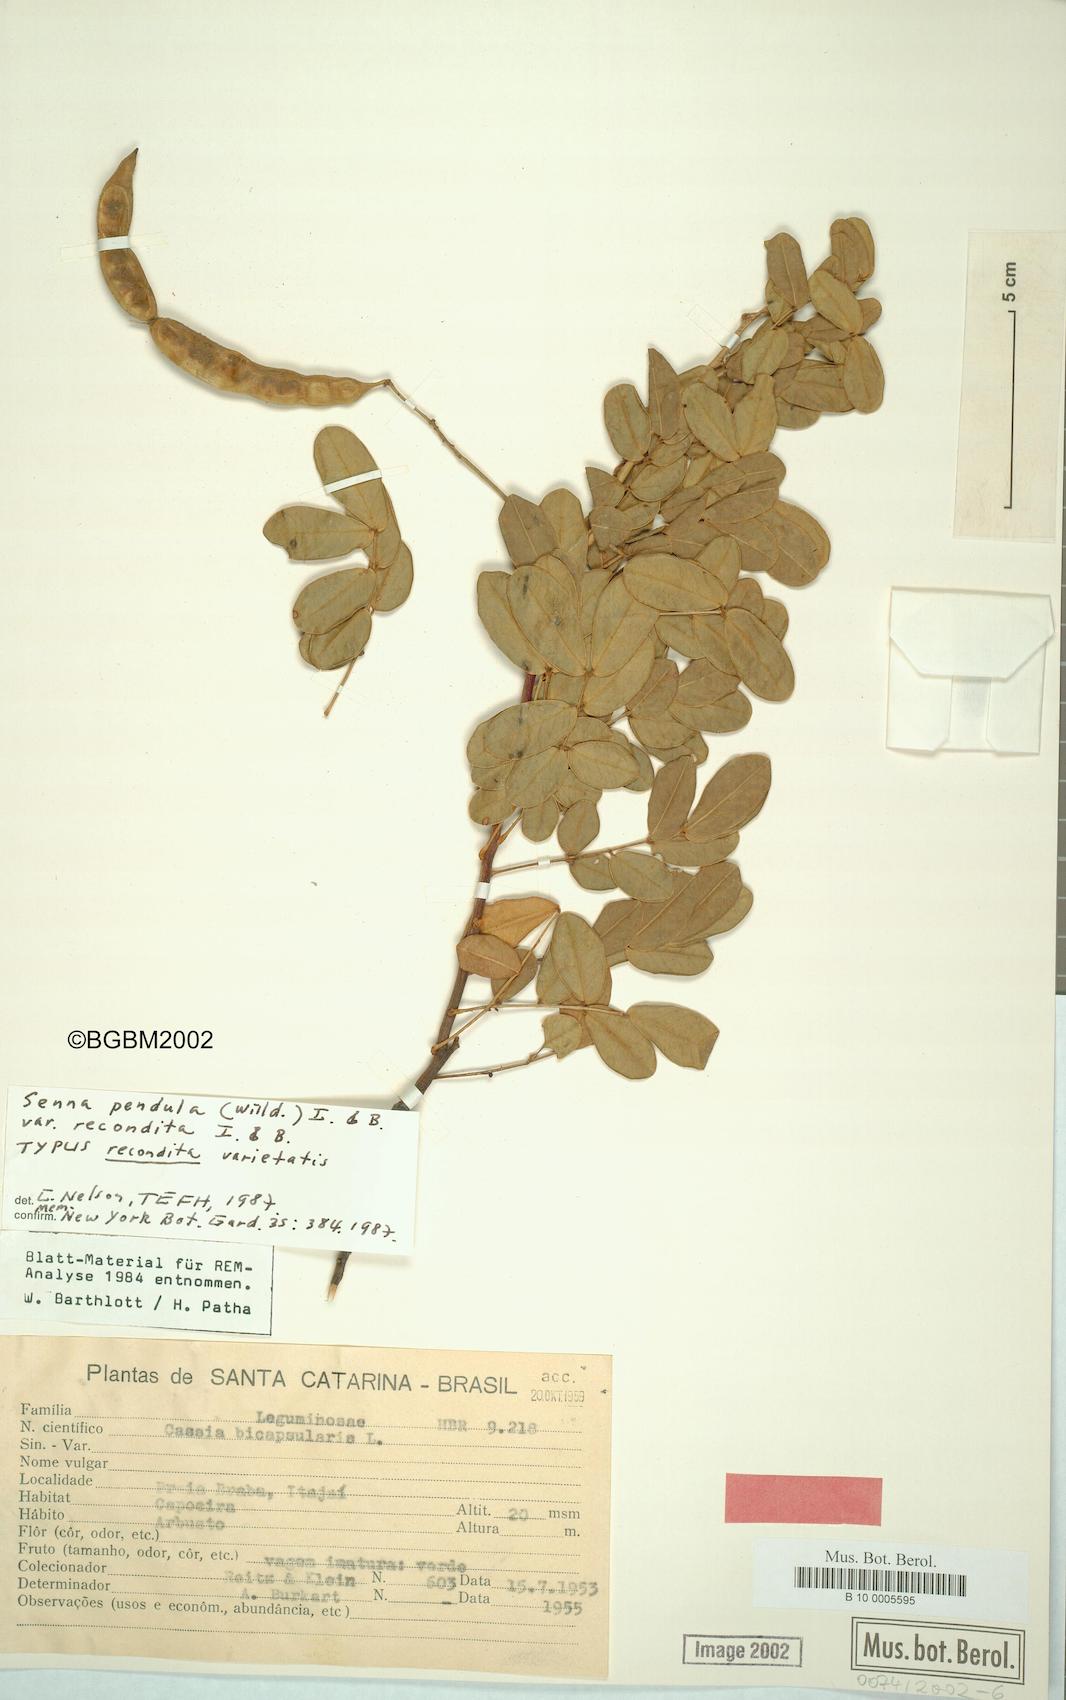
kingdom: Plantae
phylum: Tracheophyta
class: Magnoliopsida
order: Fabales
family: Fabaceae
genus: Senna
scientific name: Senna pendula
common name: Easter cassia
